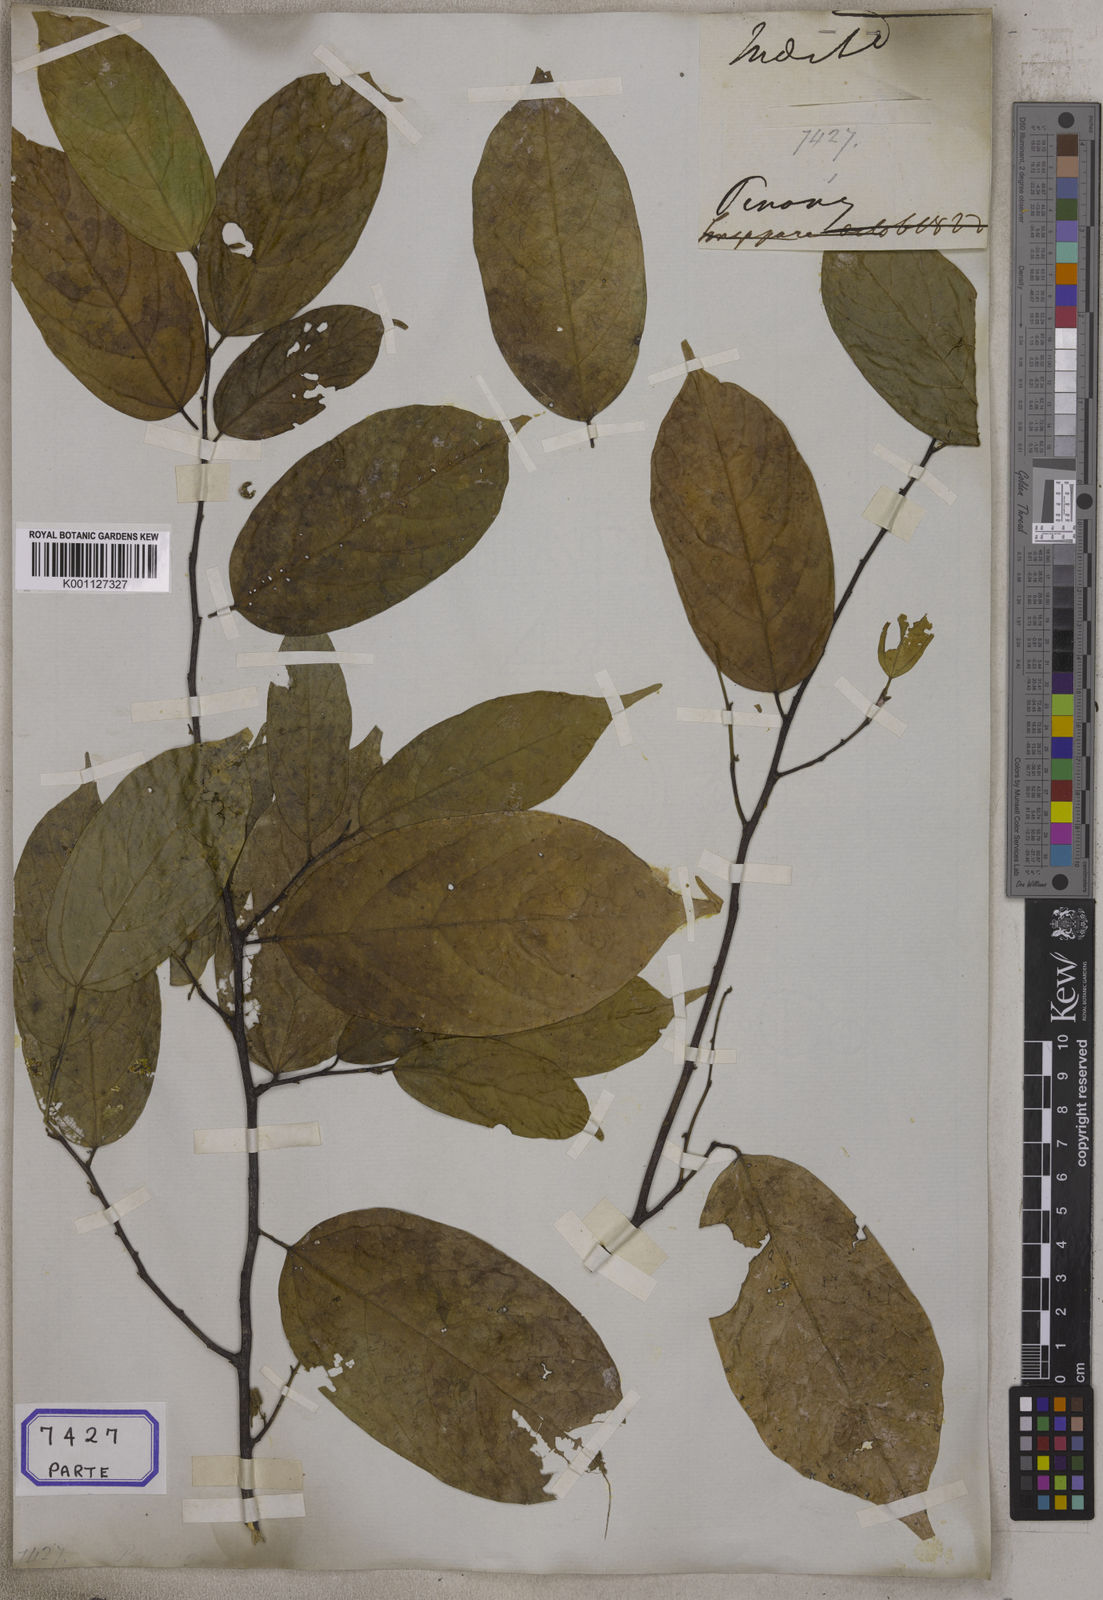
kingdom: Plantae
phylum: Tracheophyta
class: Magnoliopsida
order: Malvales
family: Malvaceae
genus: Grewia
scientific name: Grewia
